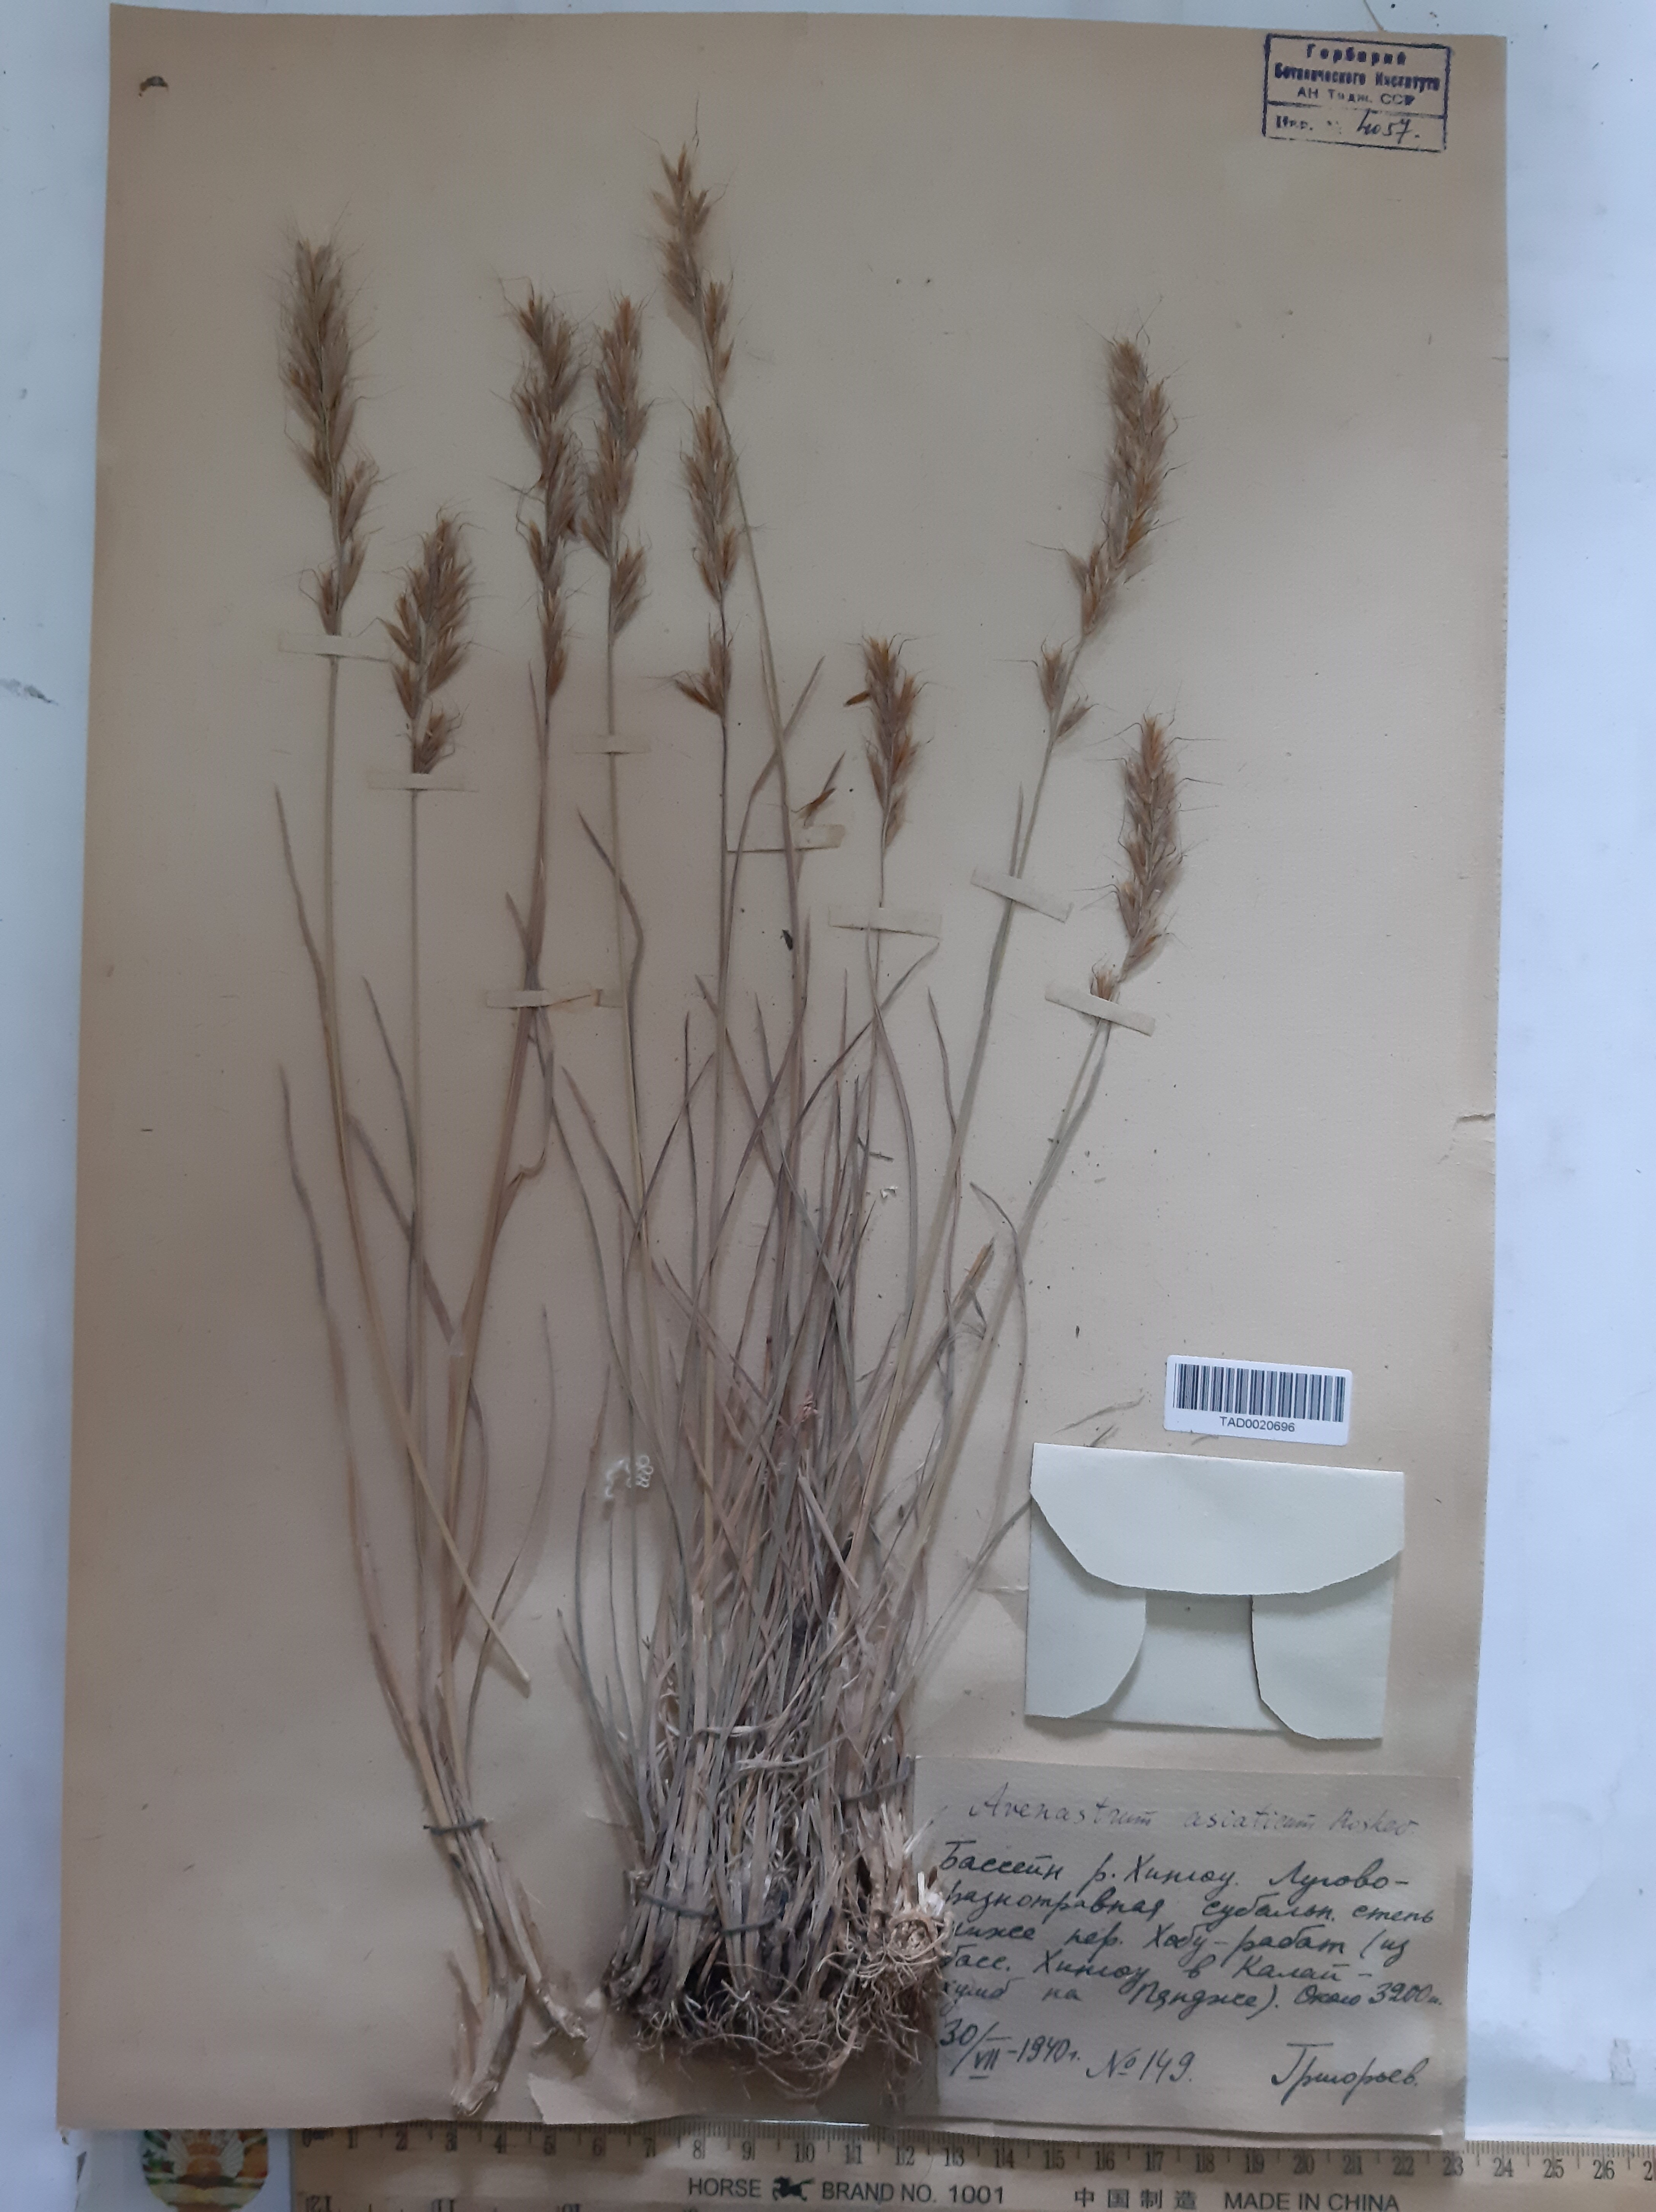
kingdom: Plantae
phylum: Tracheophyta
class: Liliopsida
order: Poales
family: Poaceae
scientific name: Poaceae
